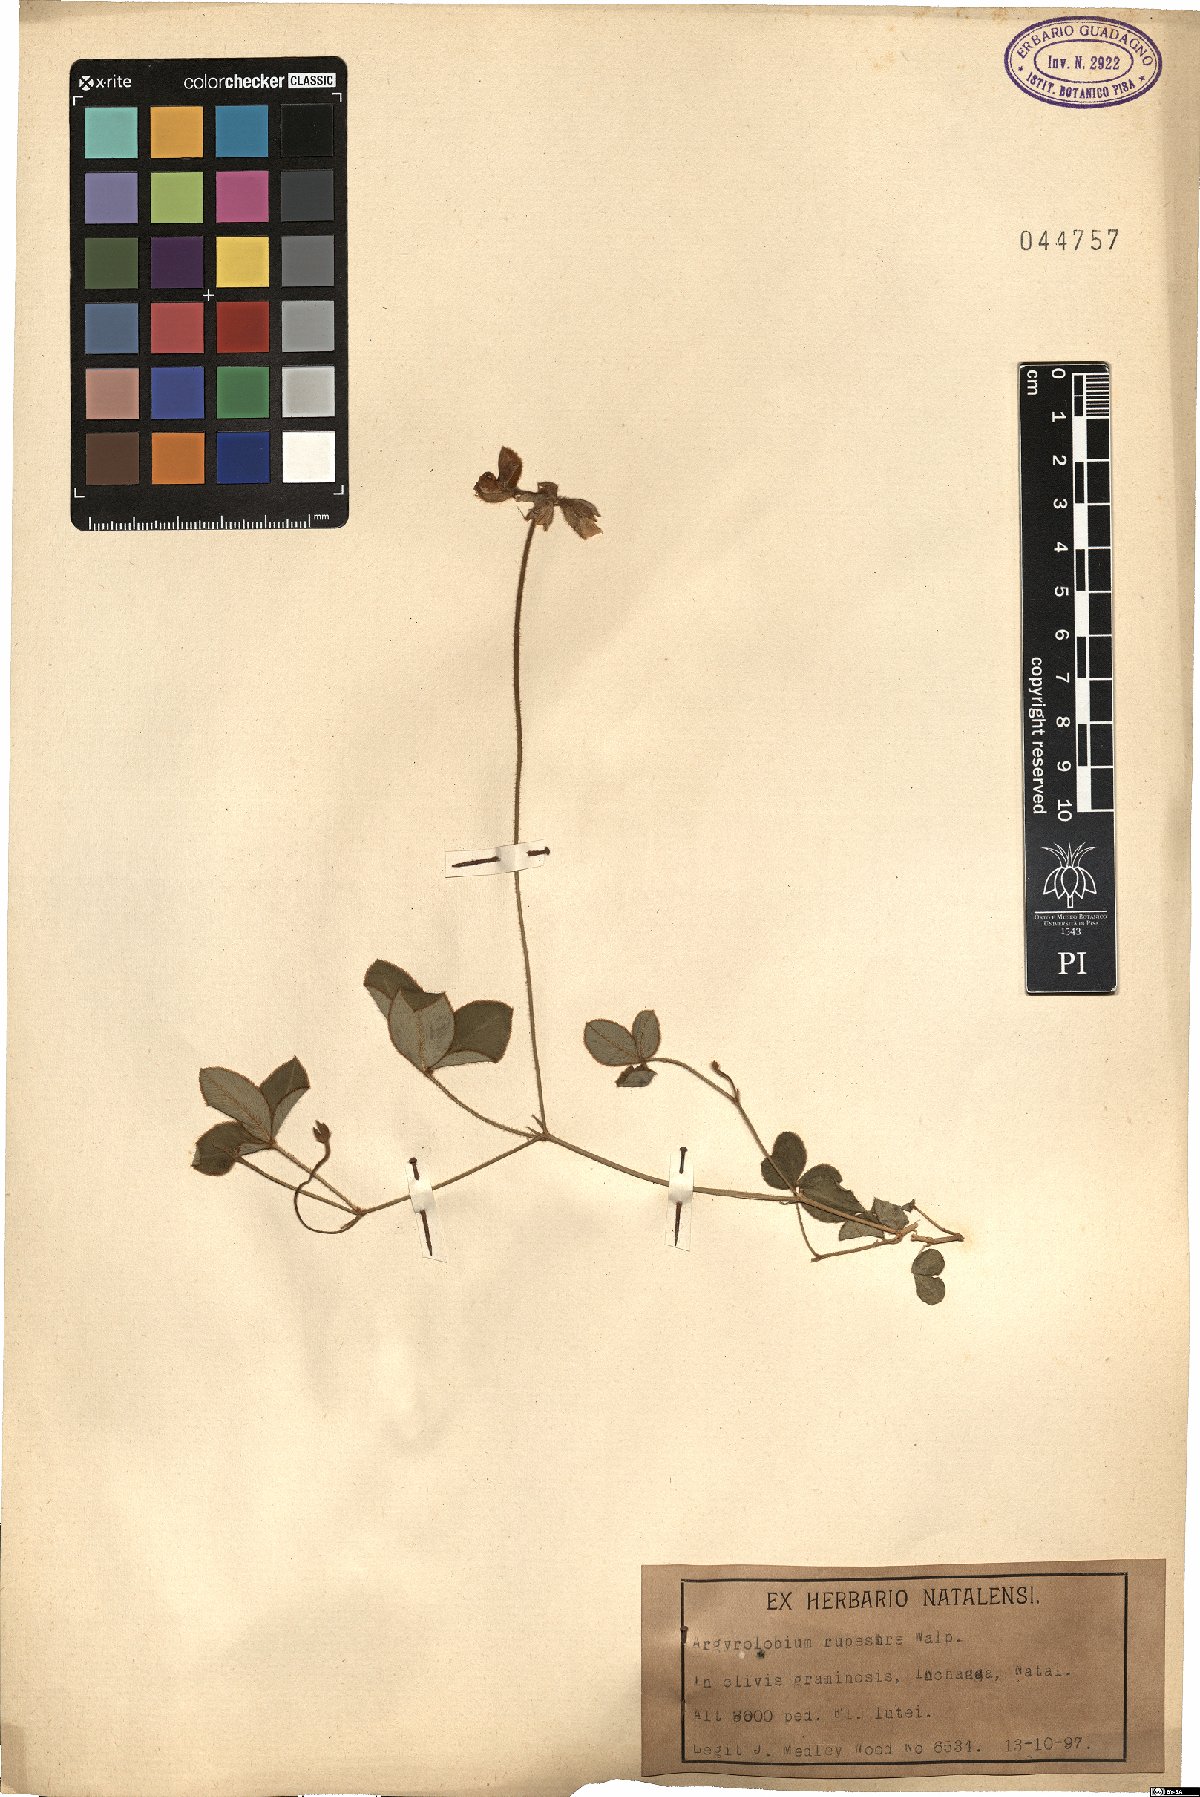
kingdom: Plantae
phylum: Tracheophyta
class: Magnoliopsida
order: Fabales
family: Fabaceae
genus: Argyrolobium
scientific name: Argyrolobium rupestre
